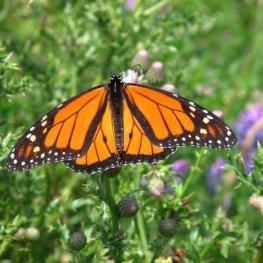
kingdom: Animalia
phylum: Arthropoda
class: Insecta
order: Lepidoptera
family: Nymphalidae
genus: Danaus
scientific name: Danaus plexippus
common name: Monarch
